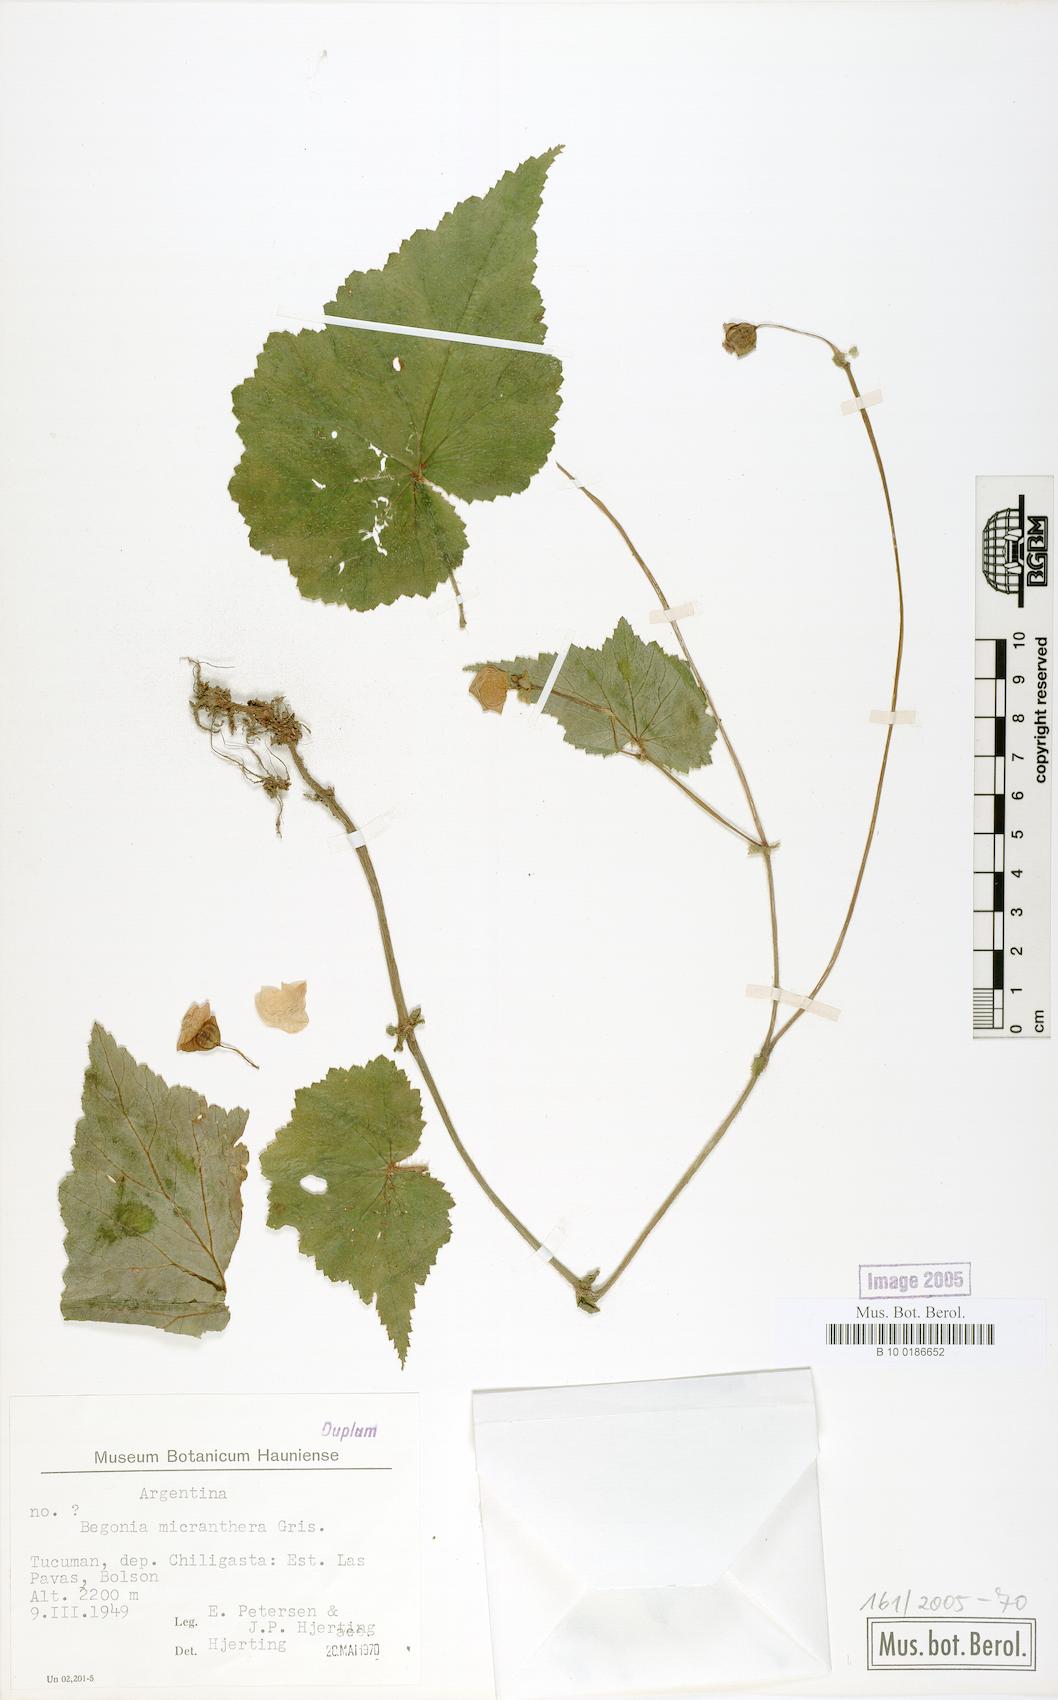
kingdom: Plantae
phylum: Tracheophyta
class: Magnoliopsida
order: Cucurbitales
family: Begoniaceae
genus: Begonia
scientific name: Begonia micranthera
